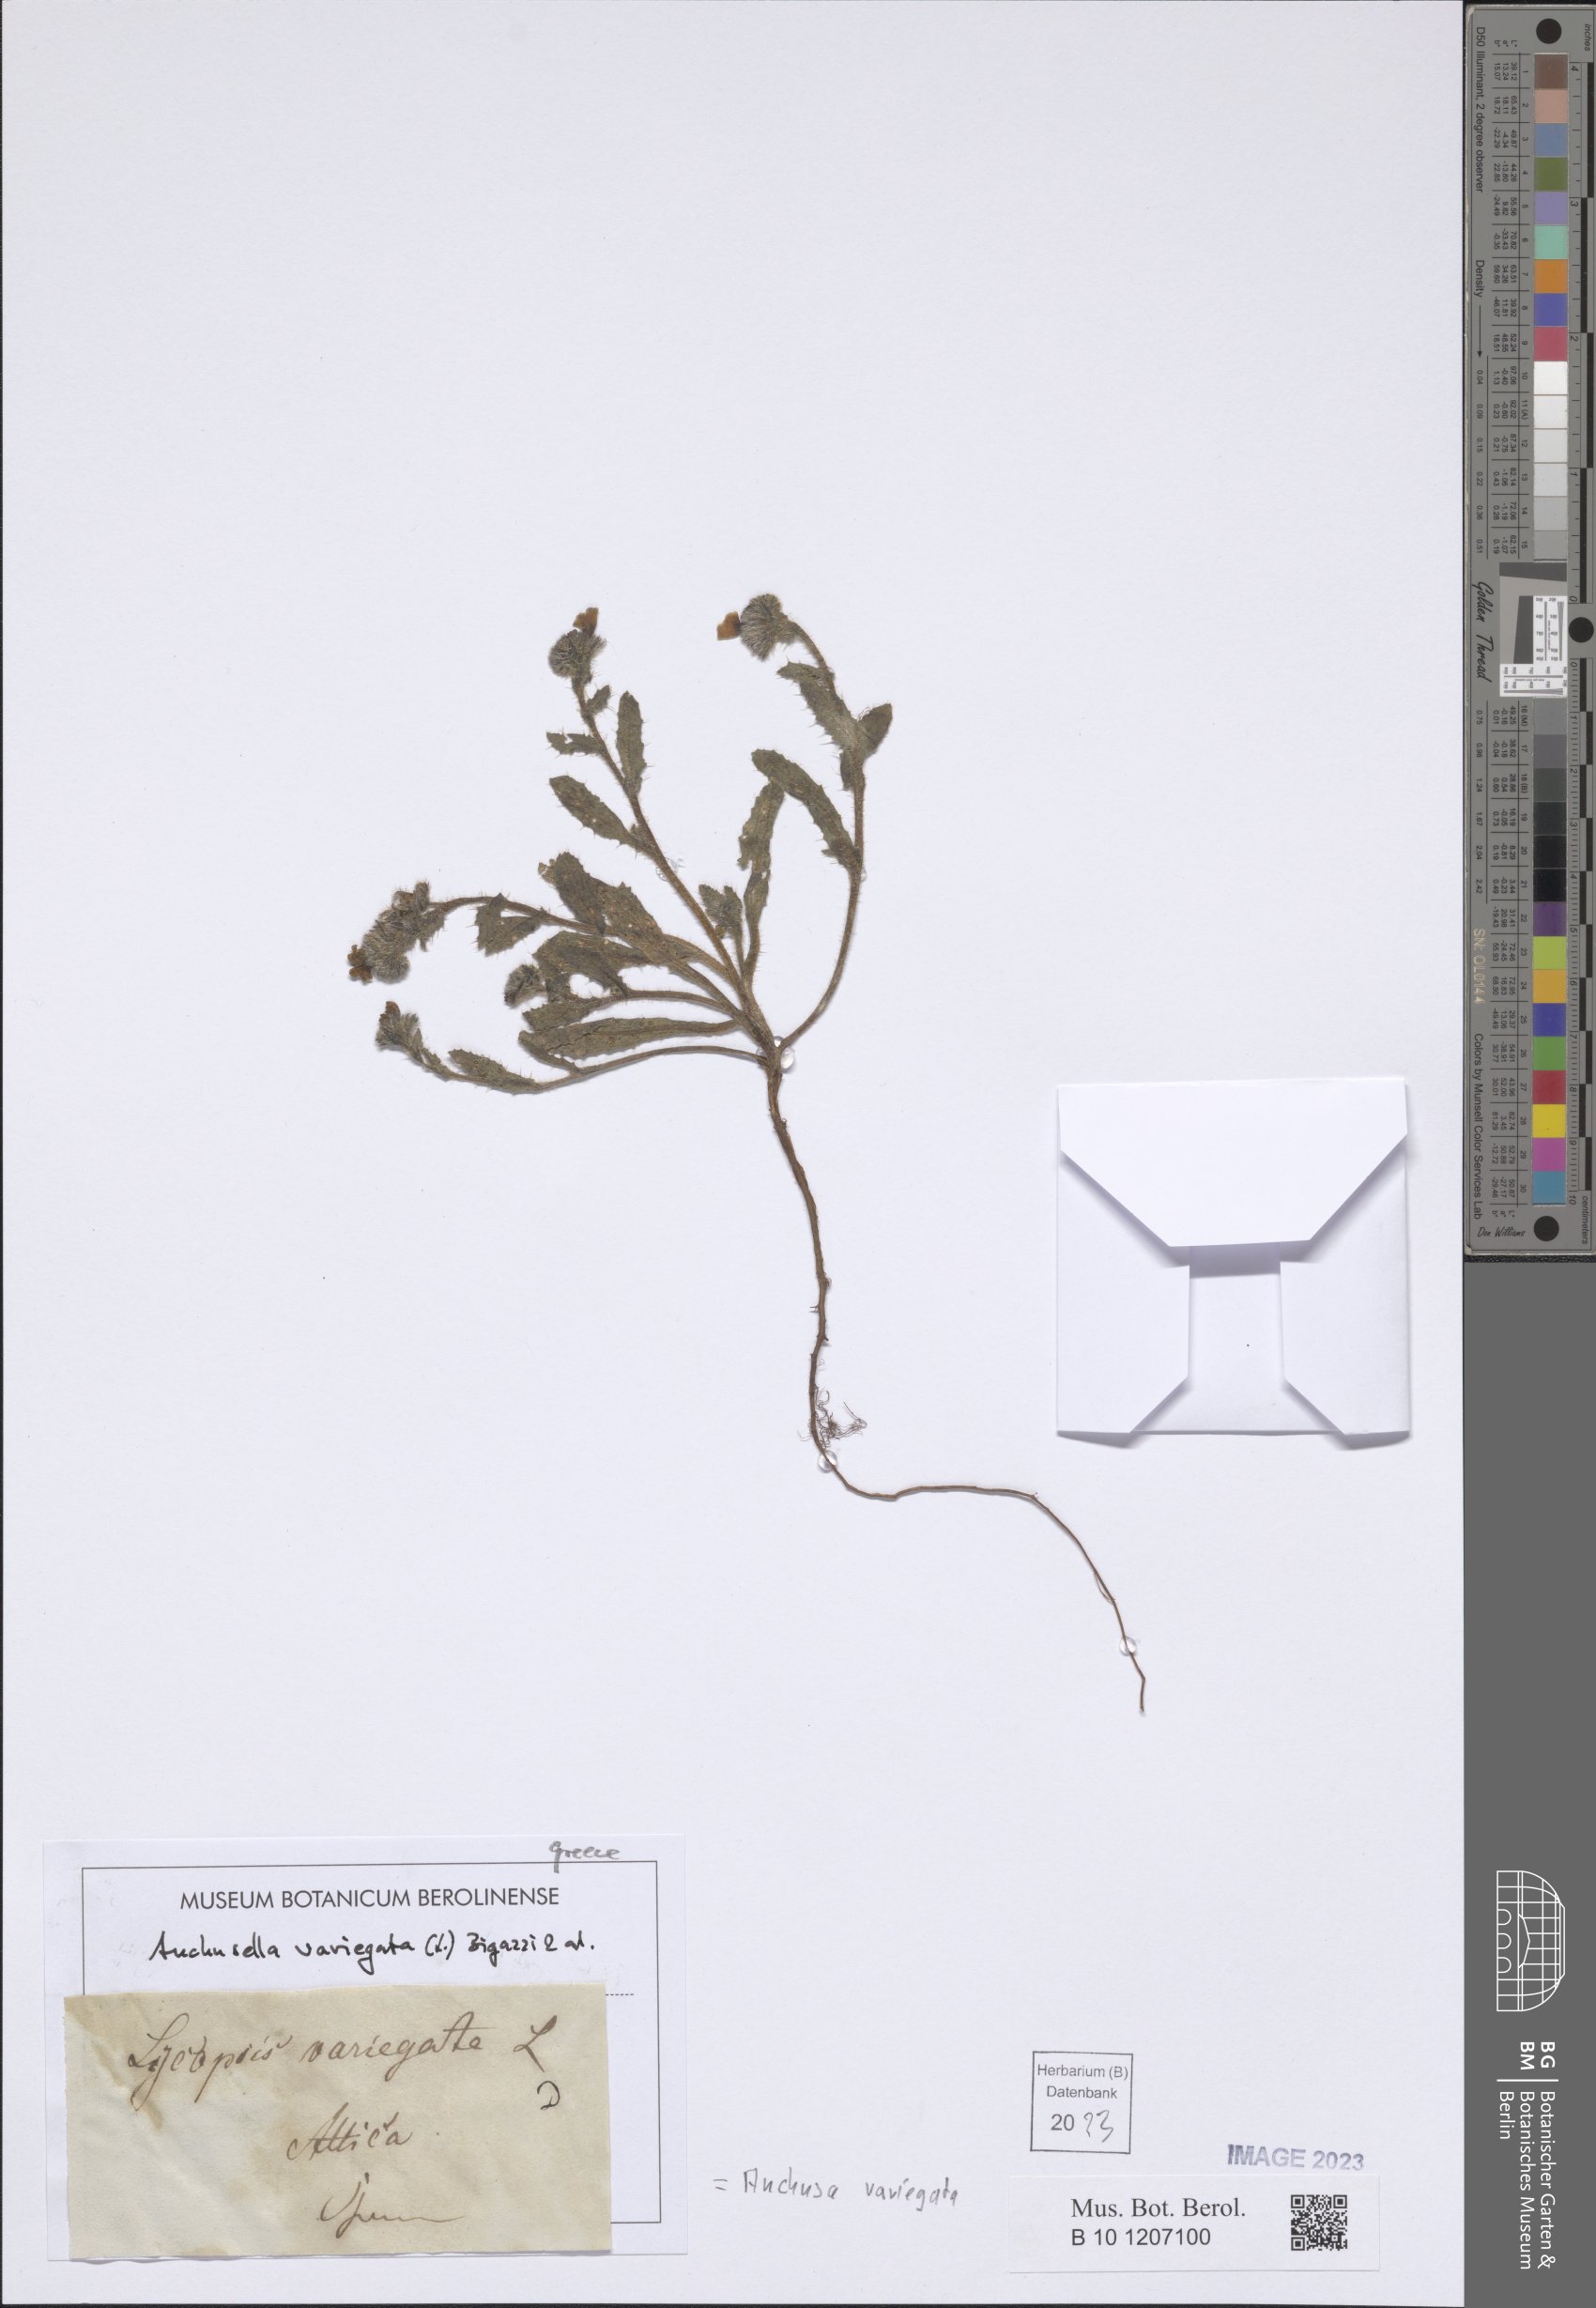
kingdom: Plantae
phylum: Tracheophyta
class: Magnoliopsida
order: Boraginales
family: Boraginaceae
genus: Anchusella
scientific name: Anchusella variegata
